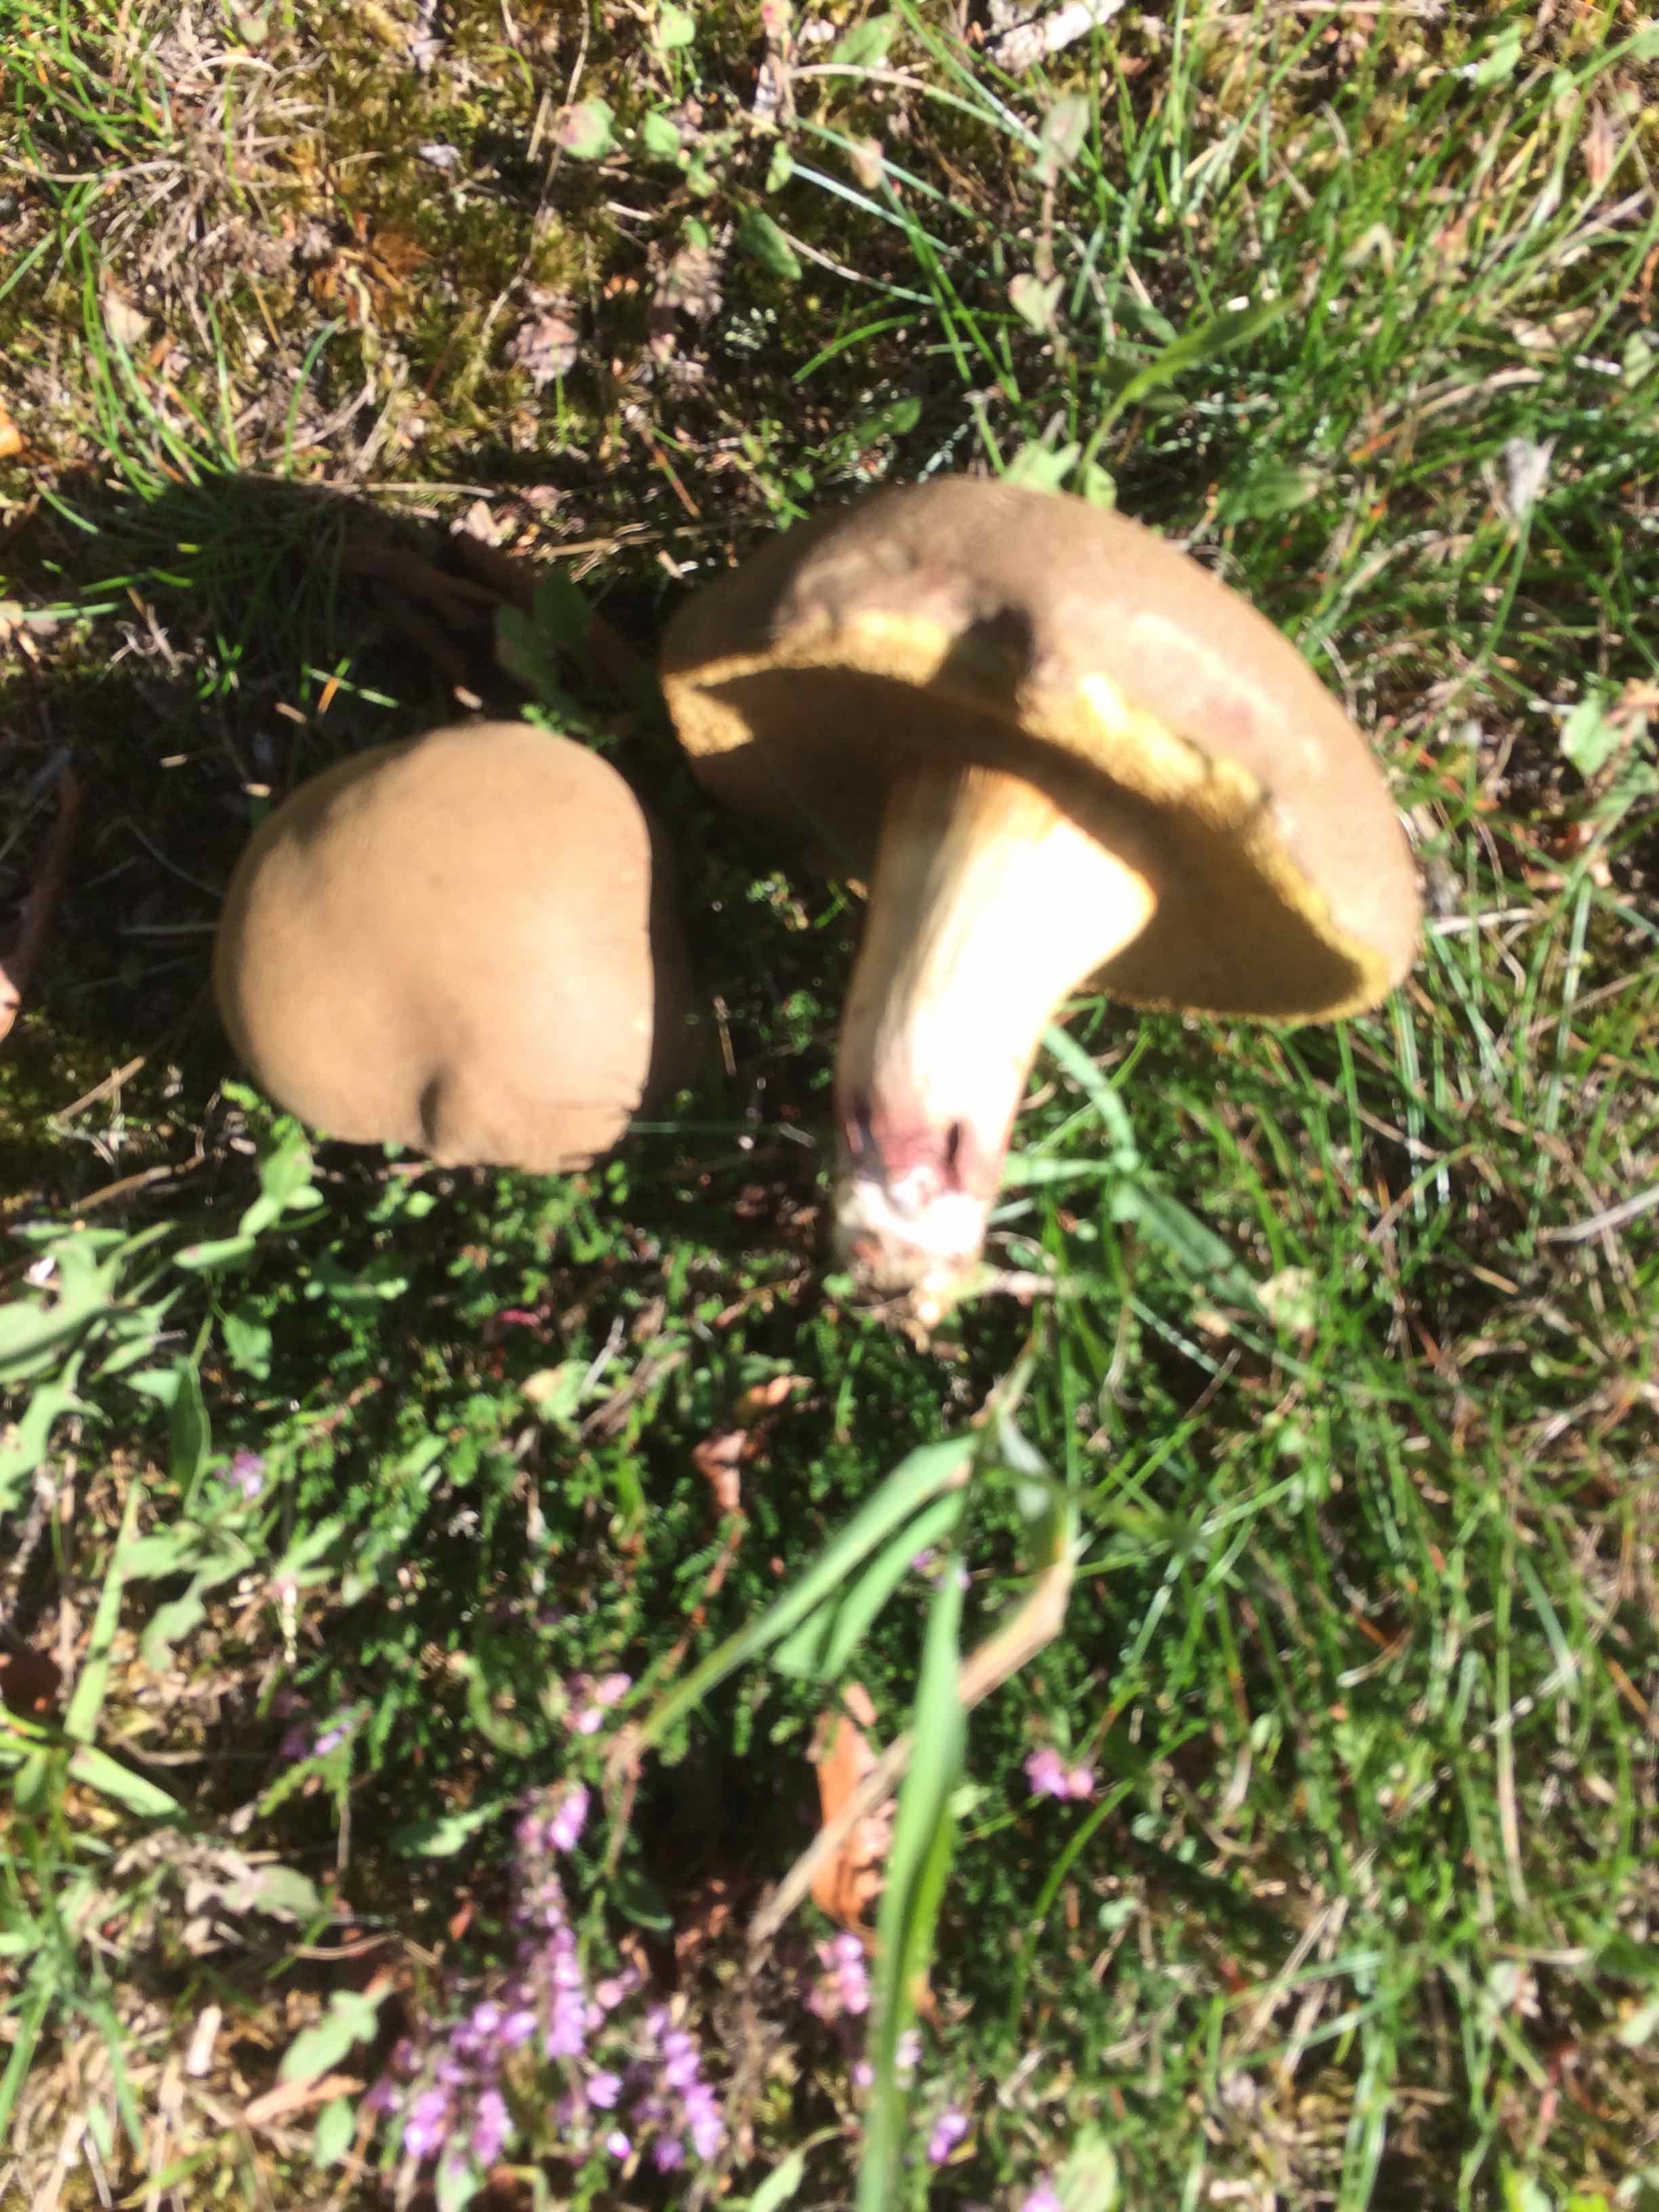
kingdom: Fungi
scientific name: Fungi
